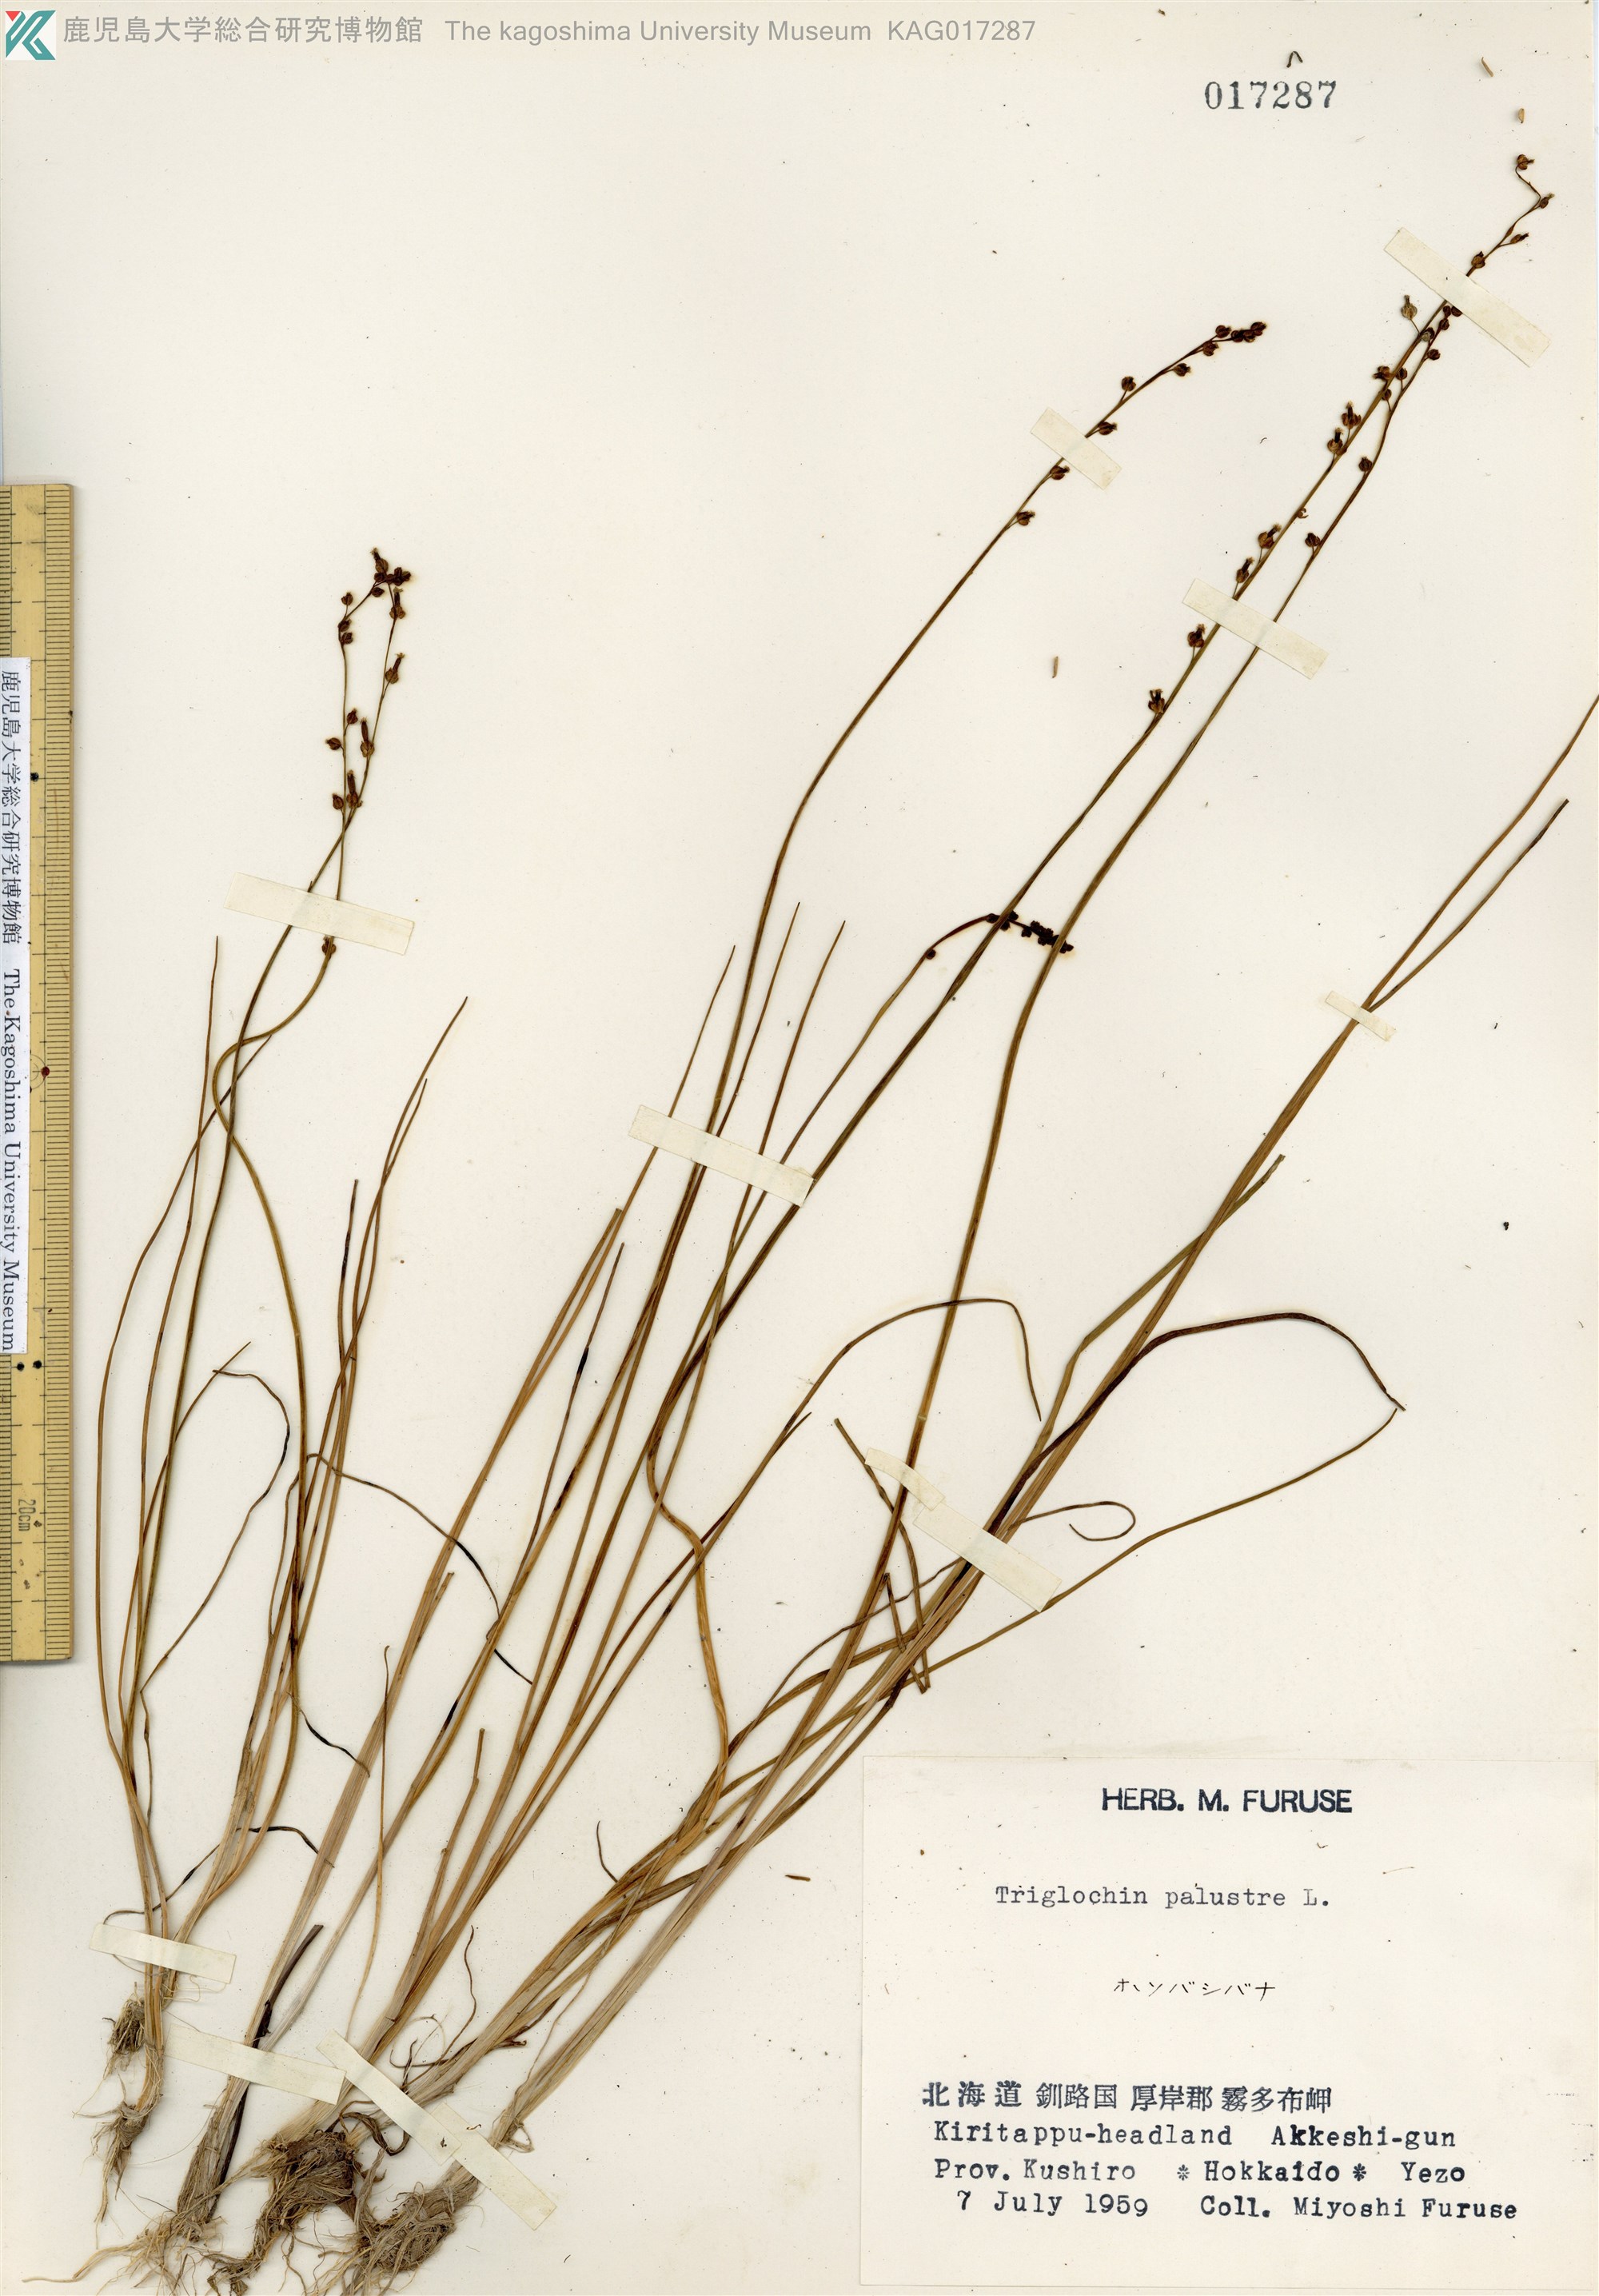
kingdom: Plantae
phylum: Tracheophyta
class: Liliopsida
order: Alismatales
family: Juncaginaceae
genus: Triglochin
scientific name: Triglochin palustris
